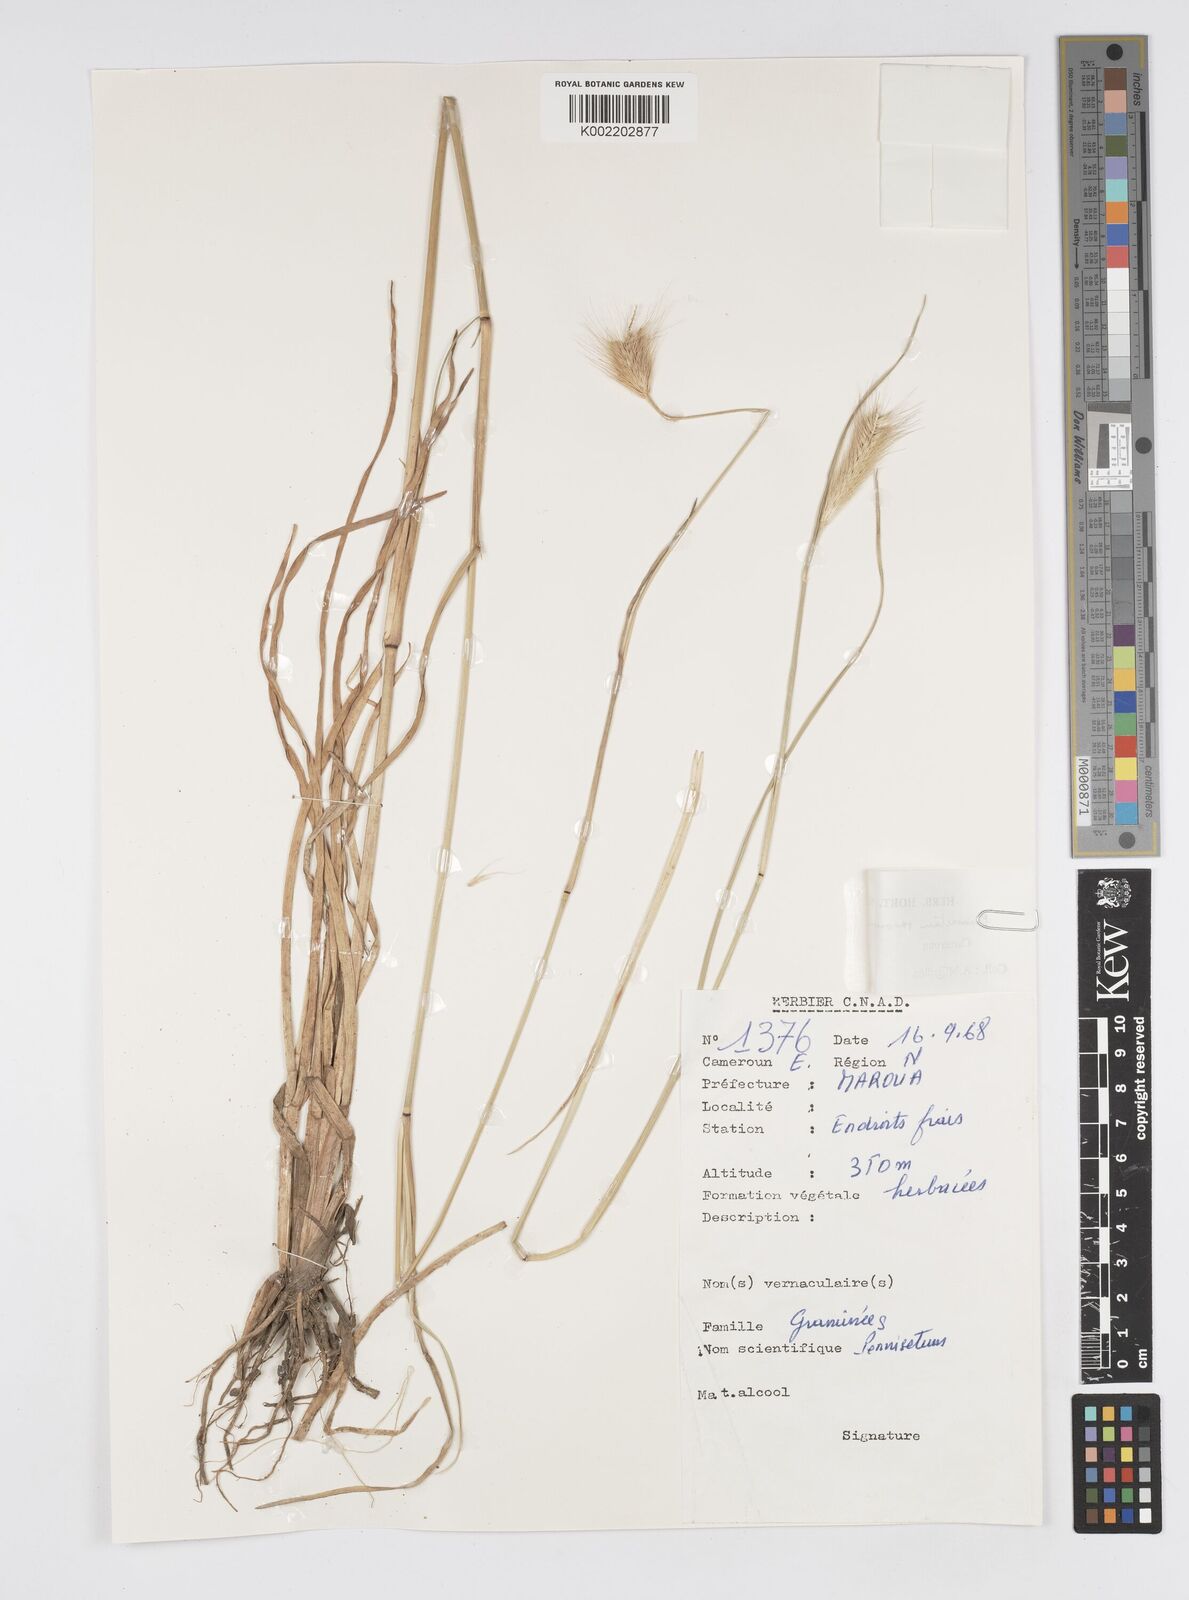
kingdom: Plantae
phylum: Tracheophyta
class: Liliopsida
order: Poales
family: Poaceae
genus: Cenchrus
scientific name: Cenchrus setosus
